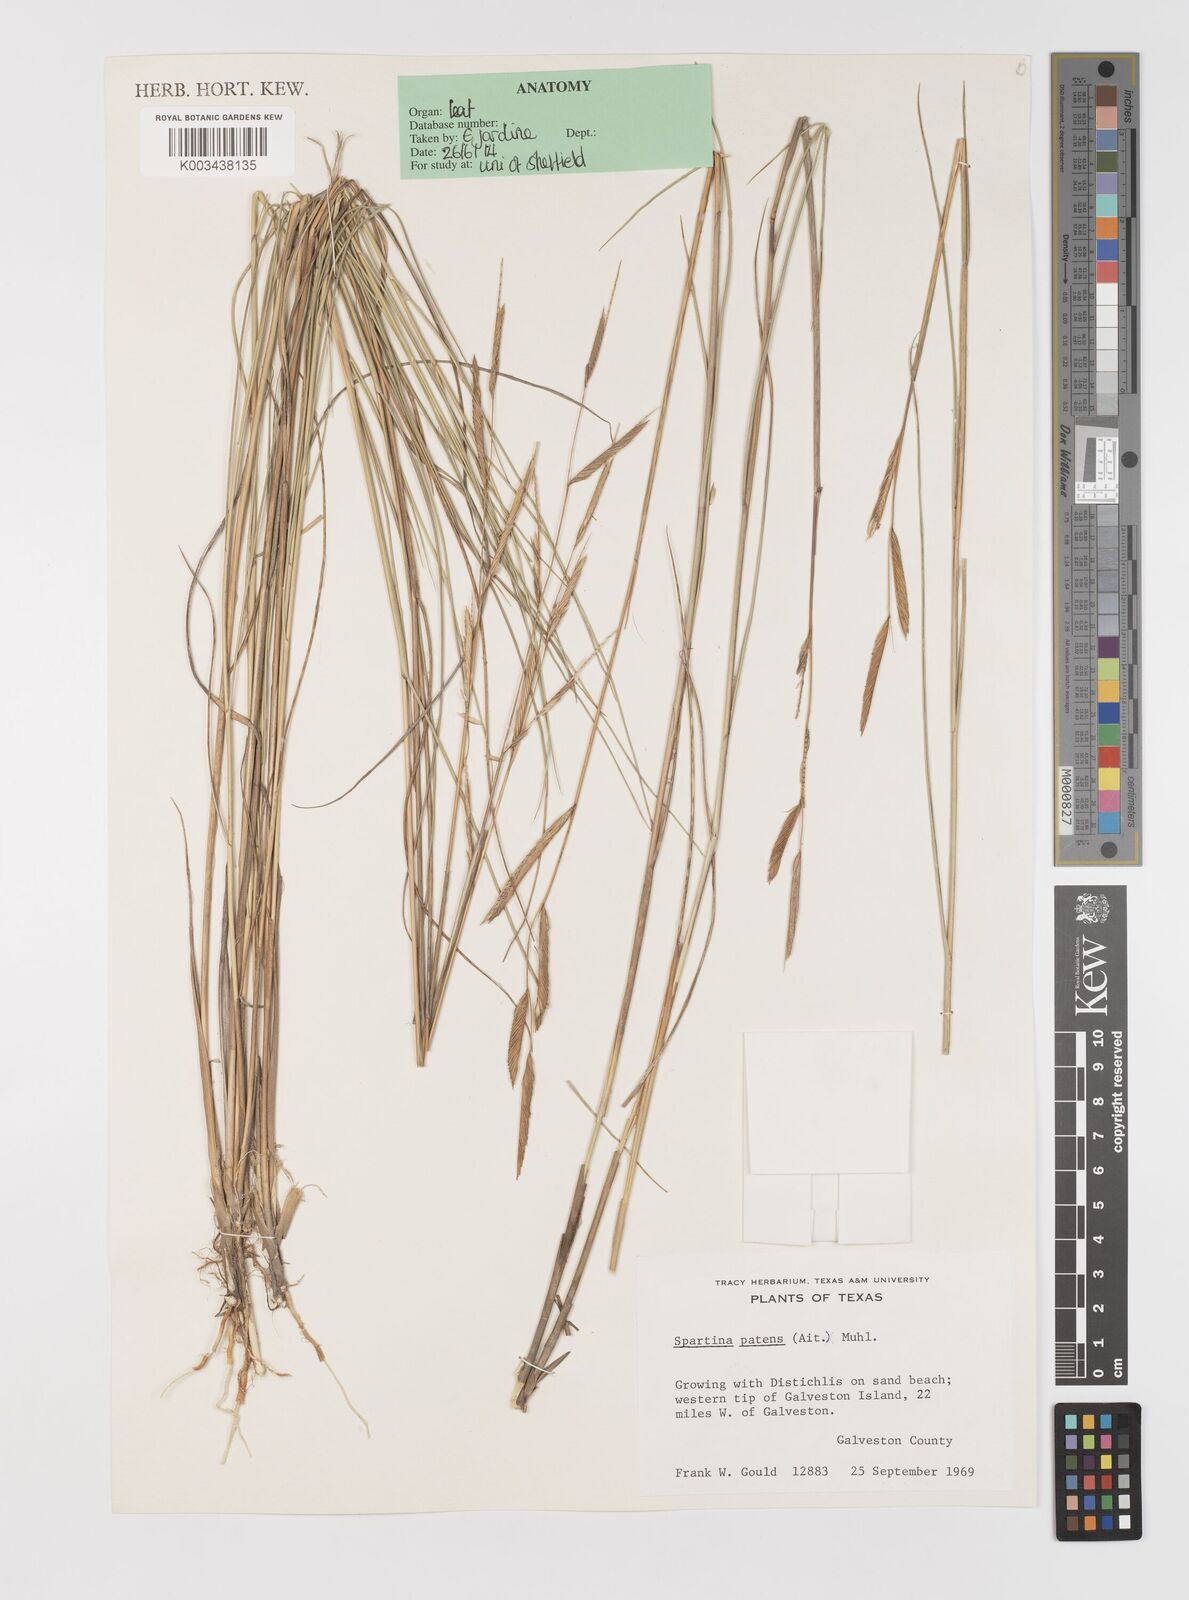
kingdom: Plantae
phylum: Tracheophyta
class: Liliopsida
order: Poales
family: Poaceae
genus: Sporobolus
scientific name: Sporobolus pumilus
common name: Highwater grass
